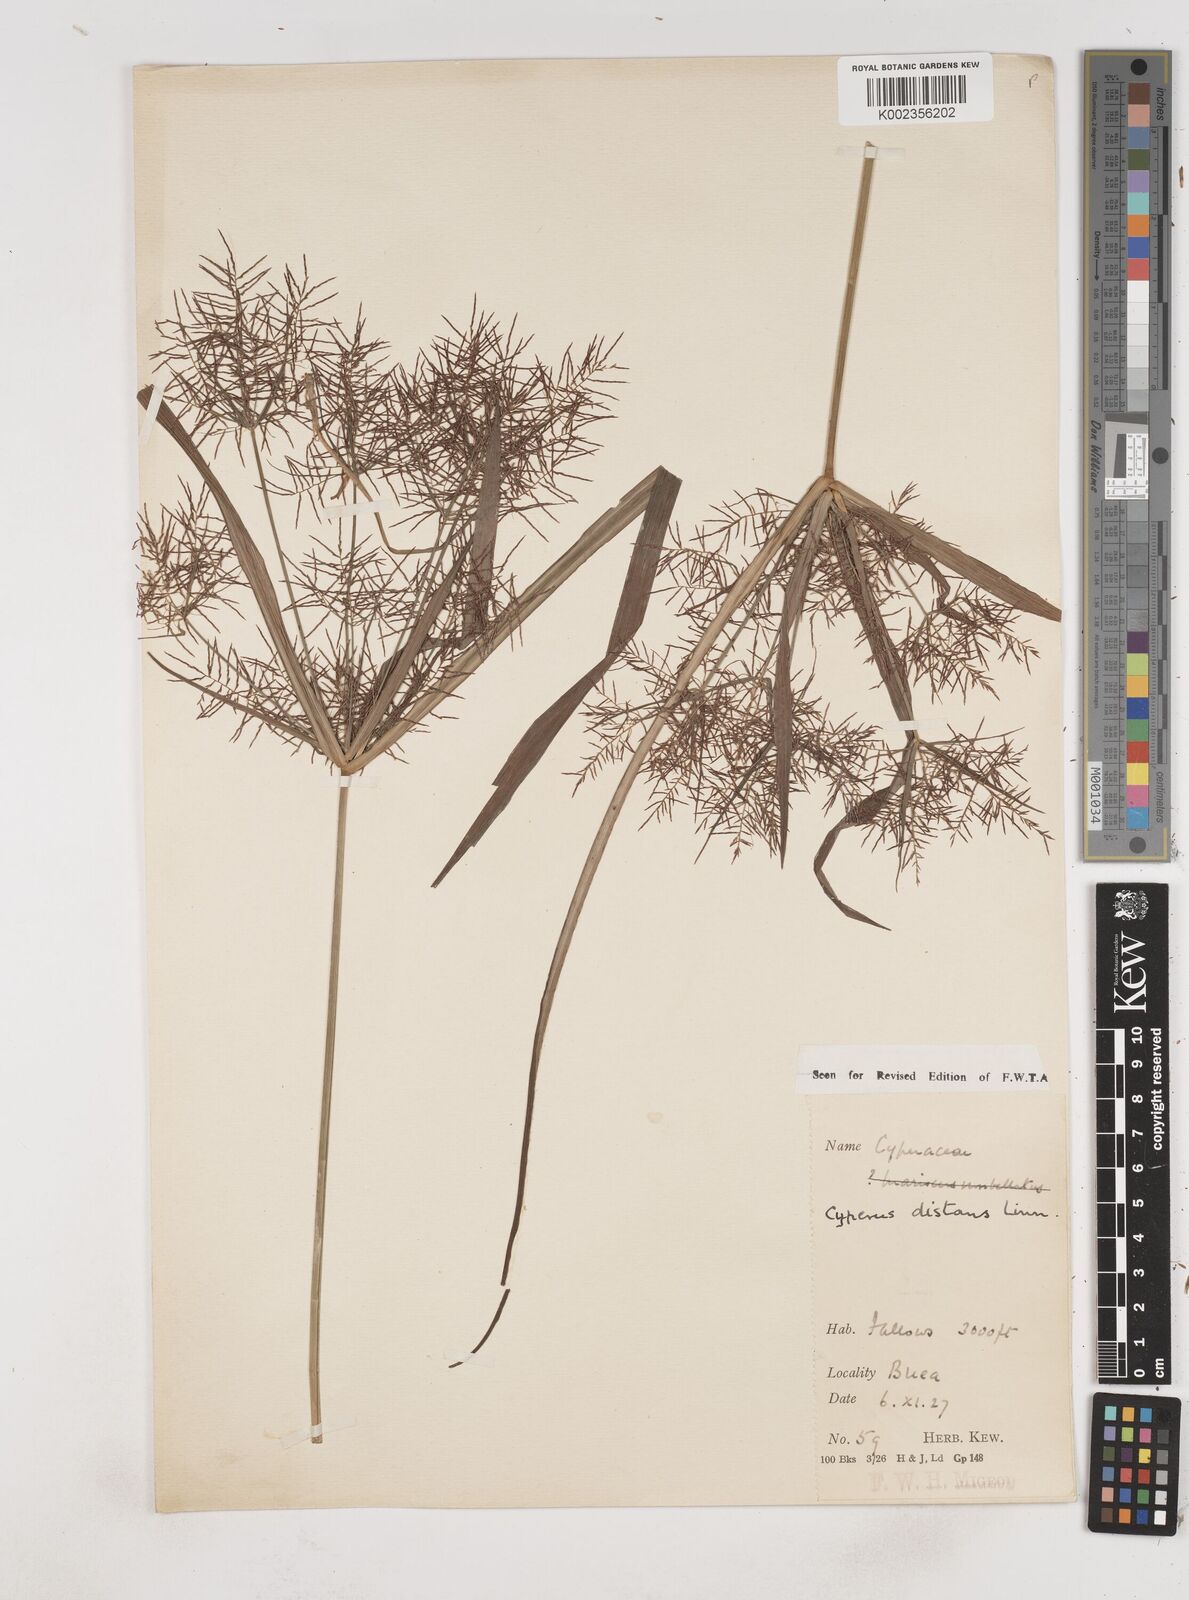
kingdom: Plantae
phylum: Tracheophyta
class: Liliopsida
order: Poales
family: Cyperaceae
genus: Cyperus
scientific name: Cyperus distans
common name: Slender cyperus
